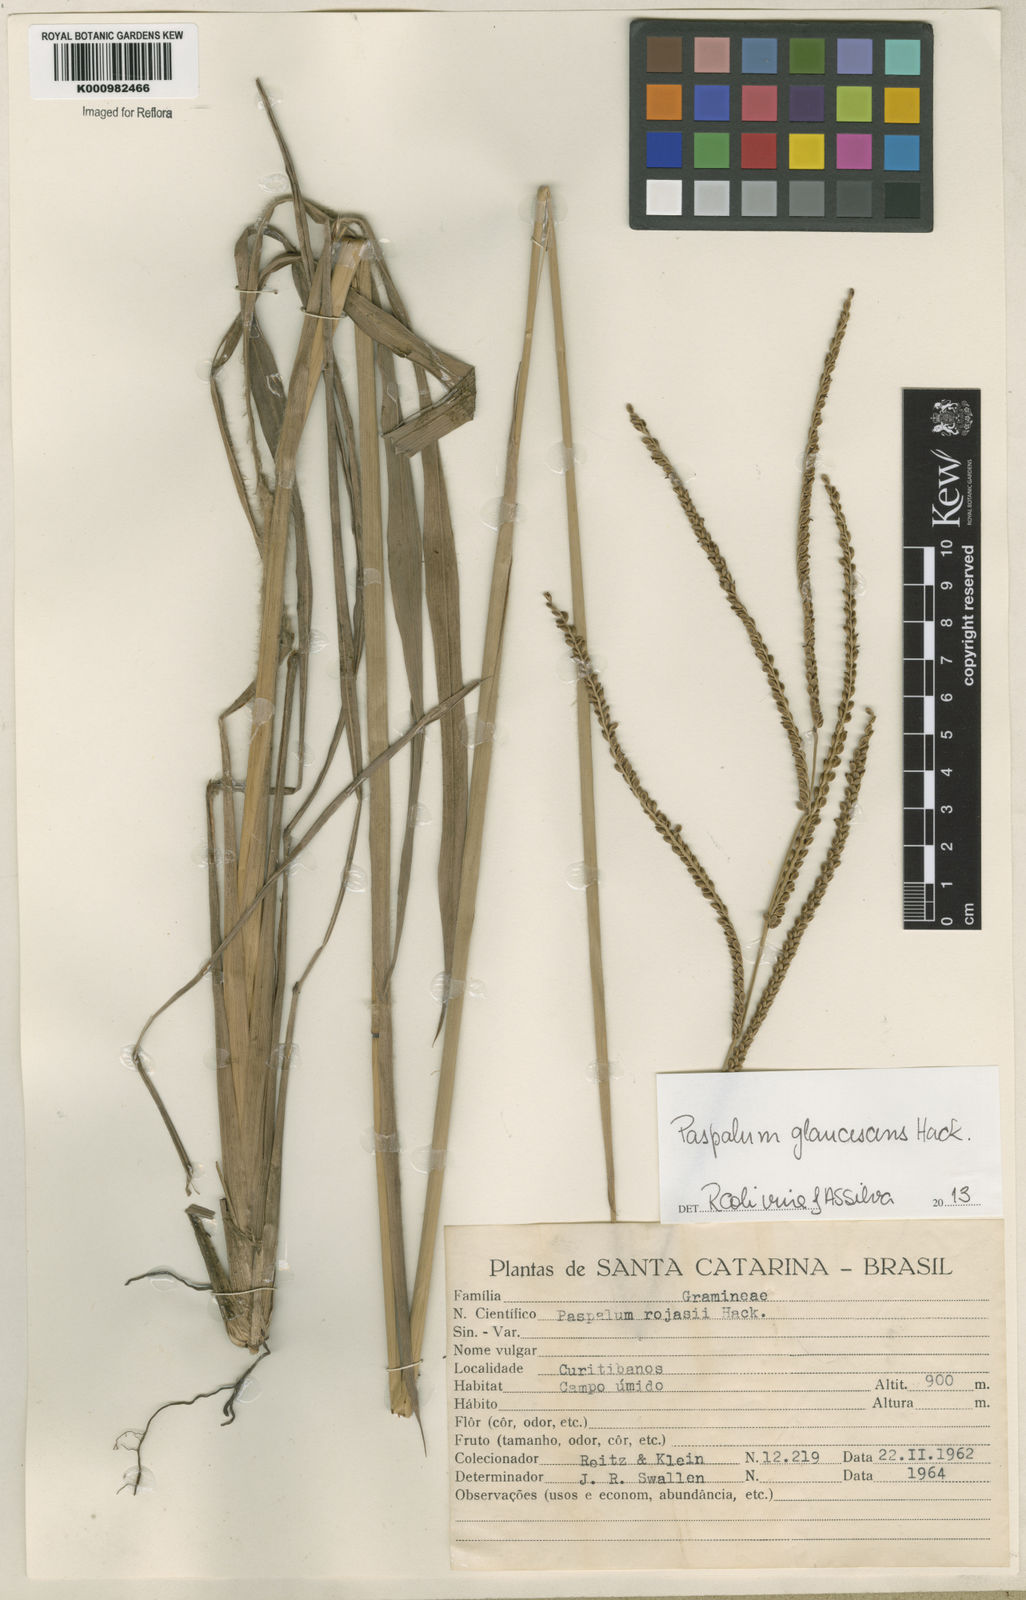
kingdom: Plantae
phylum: Tracheophyta
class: Liliopsida
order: Poales
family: Poaceae
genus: Paspalum
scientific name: Paspalum glaucescens
